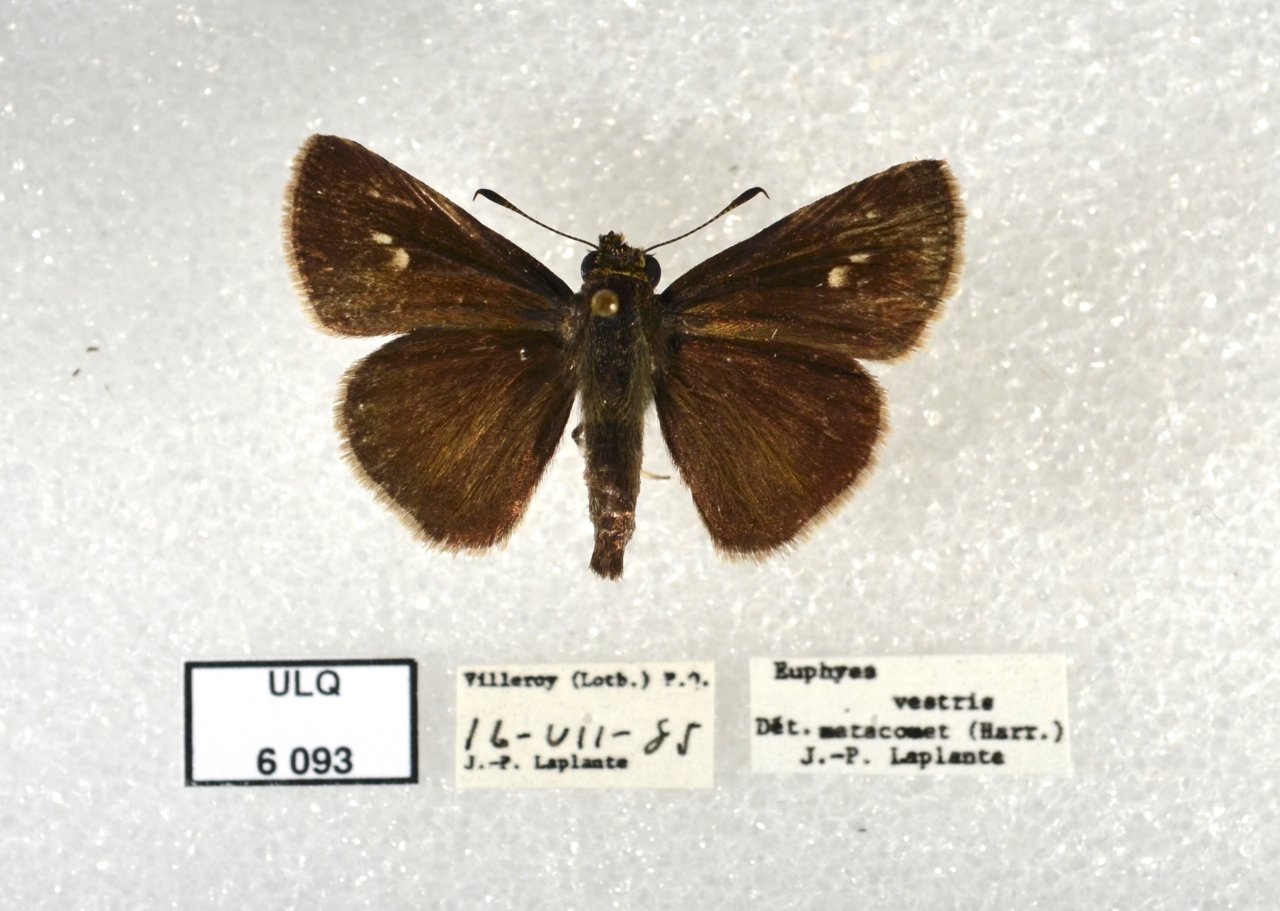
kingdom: Animalia
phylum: Arthropoda
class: Insecta
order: Lepidoptera
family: Hesperiidae
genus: Euphyes
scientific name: Euphyes vestris
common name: Dun Skipper
